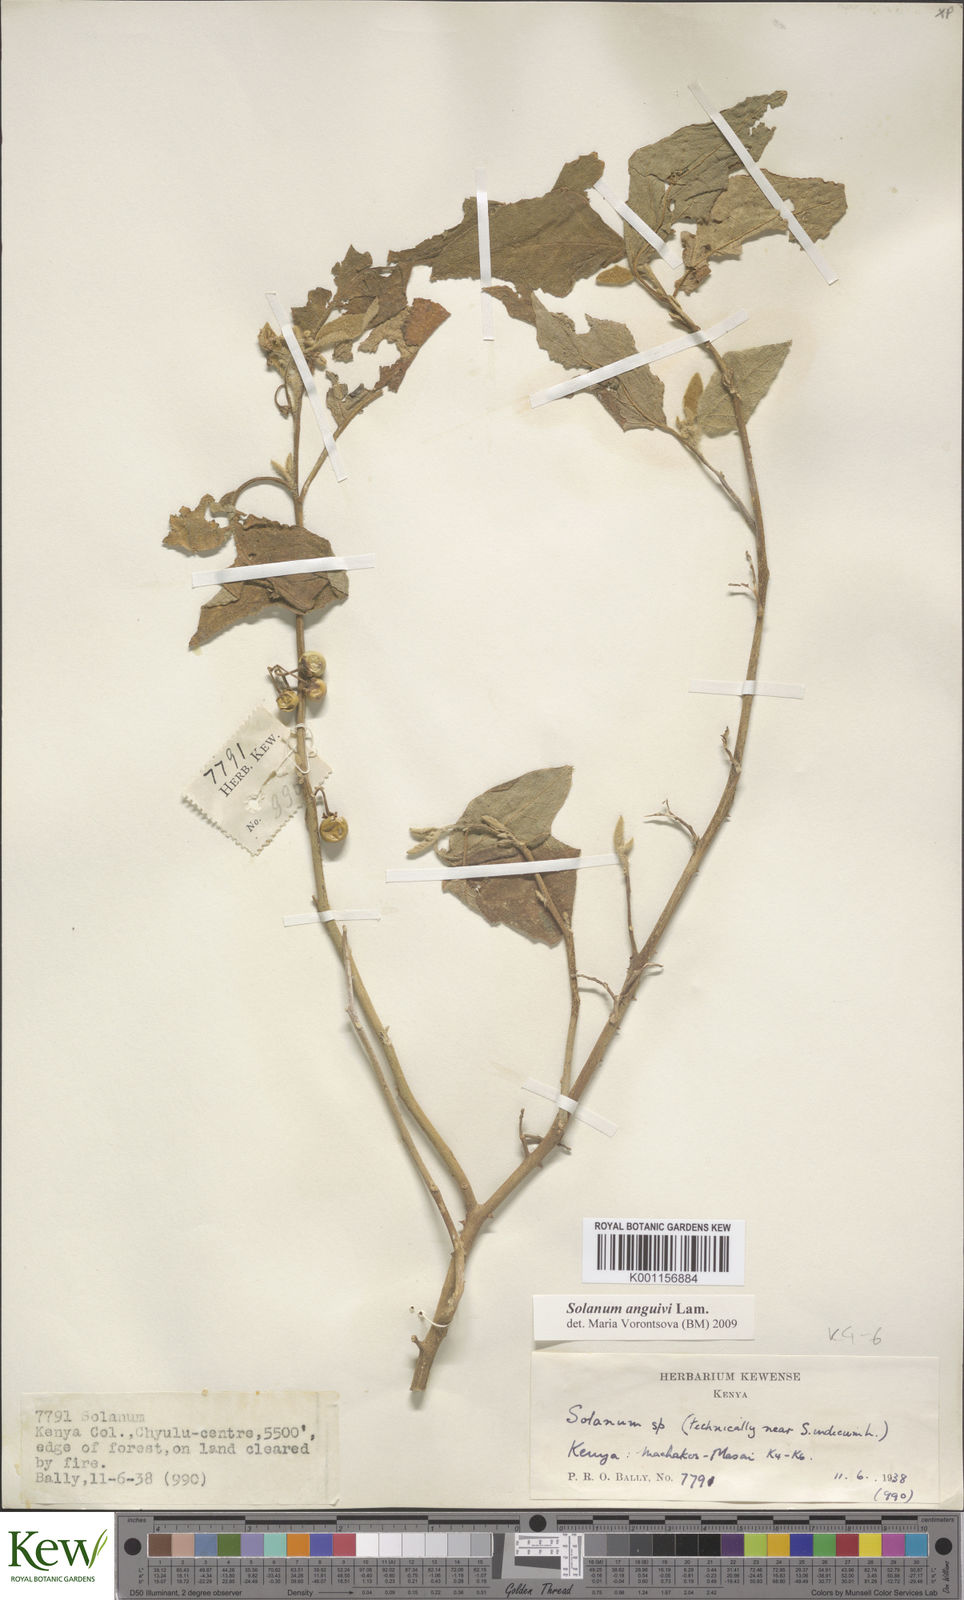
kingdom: Plantae
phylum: Tracheophyta
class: Magnoliopsida
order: Solanales
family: Solanaceae
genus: Solanum
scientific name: Solanum anguivi
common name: Forest bitterberry
